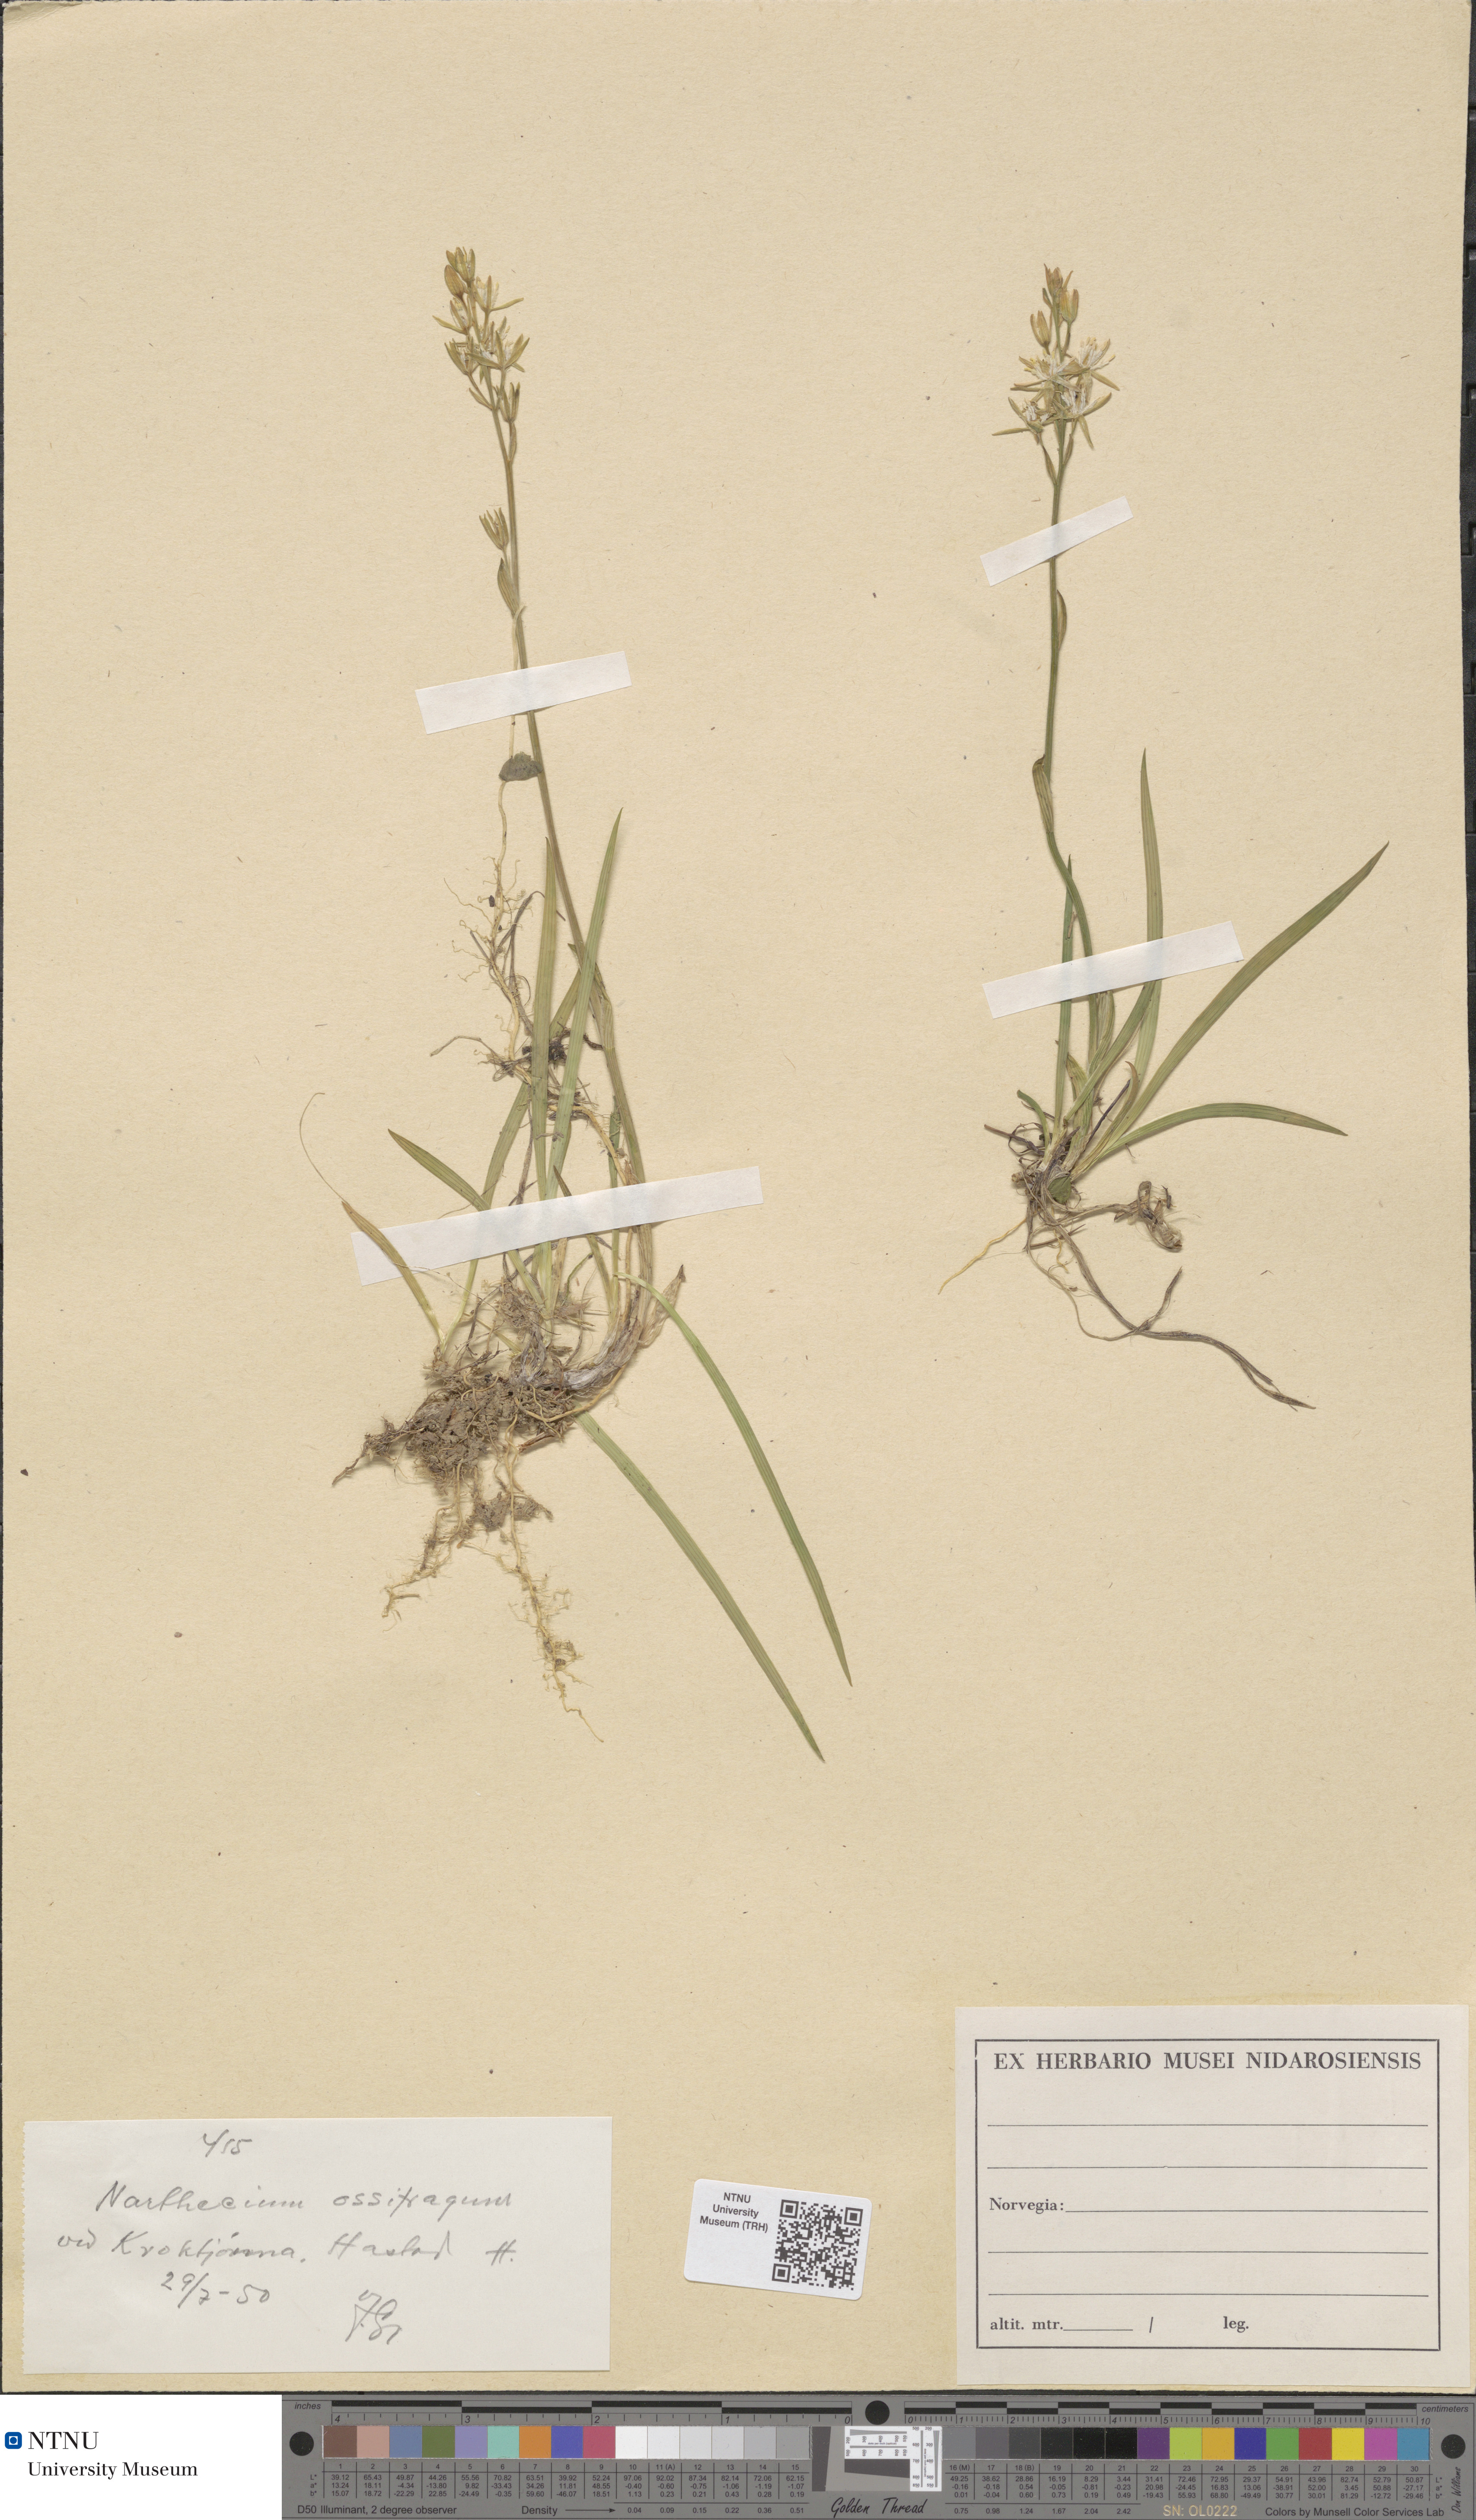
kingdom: Plantae
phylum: Tracheophyta
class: Liliopsida
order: Dioscoreales
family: Nartheciaceae
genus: Narthecium
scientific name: Narthecium ossifragum
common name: Bog asphodel
